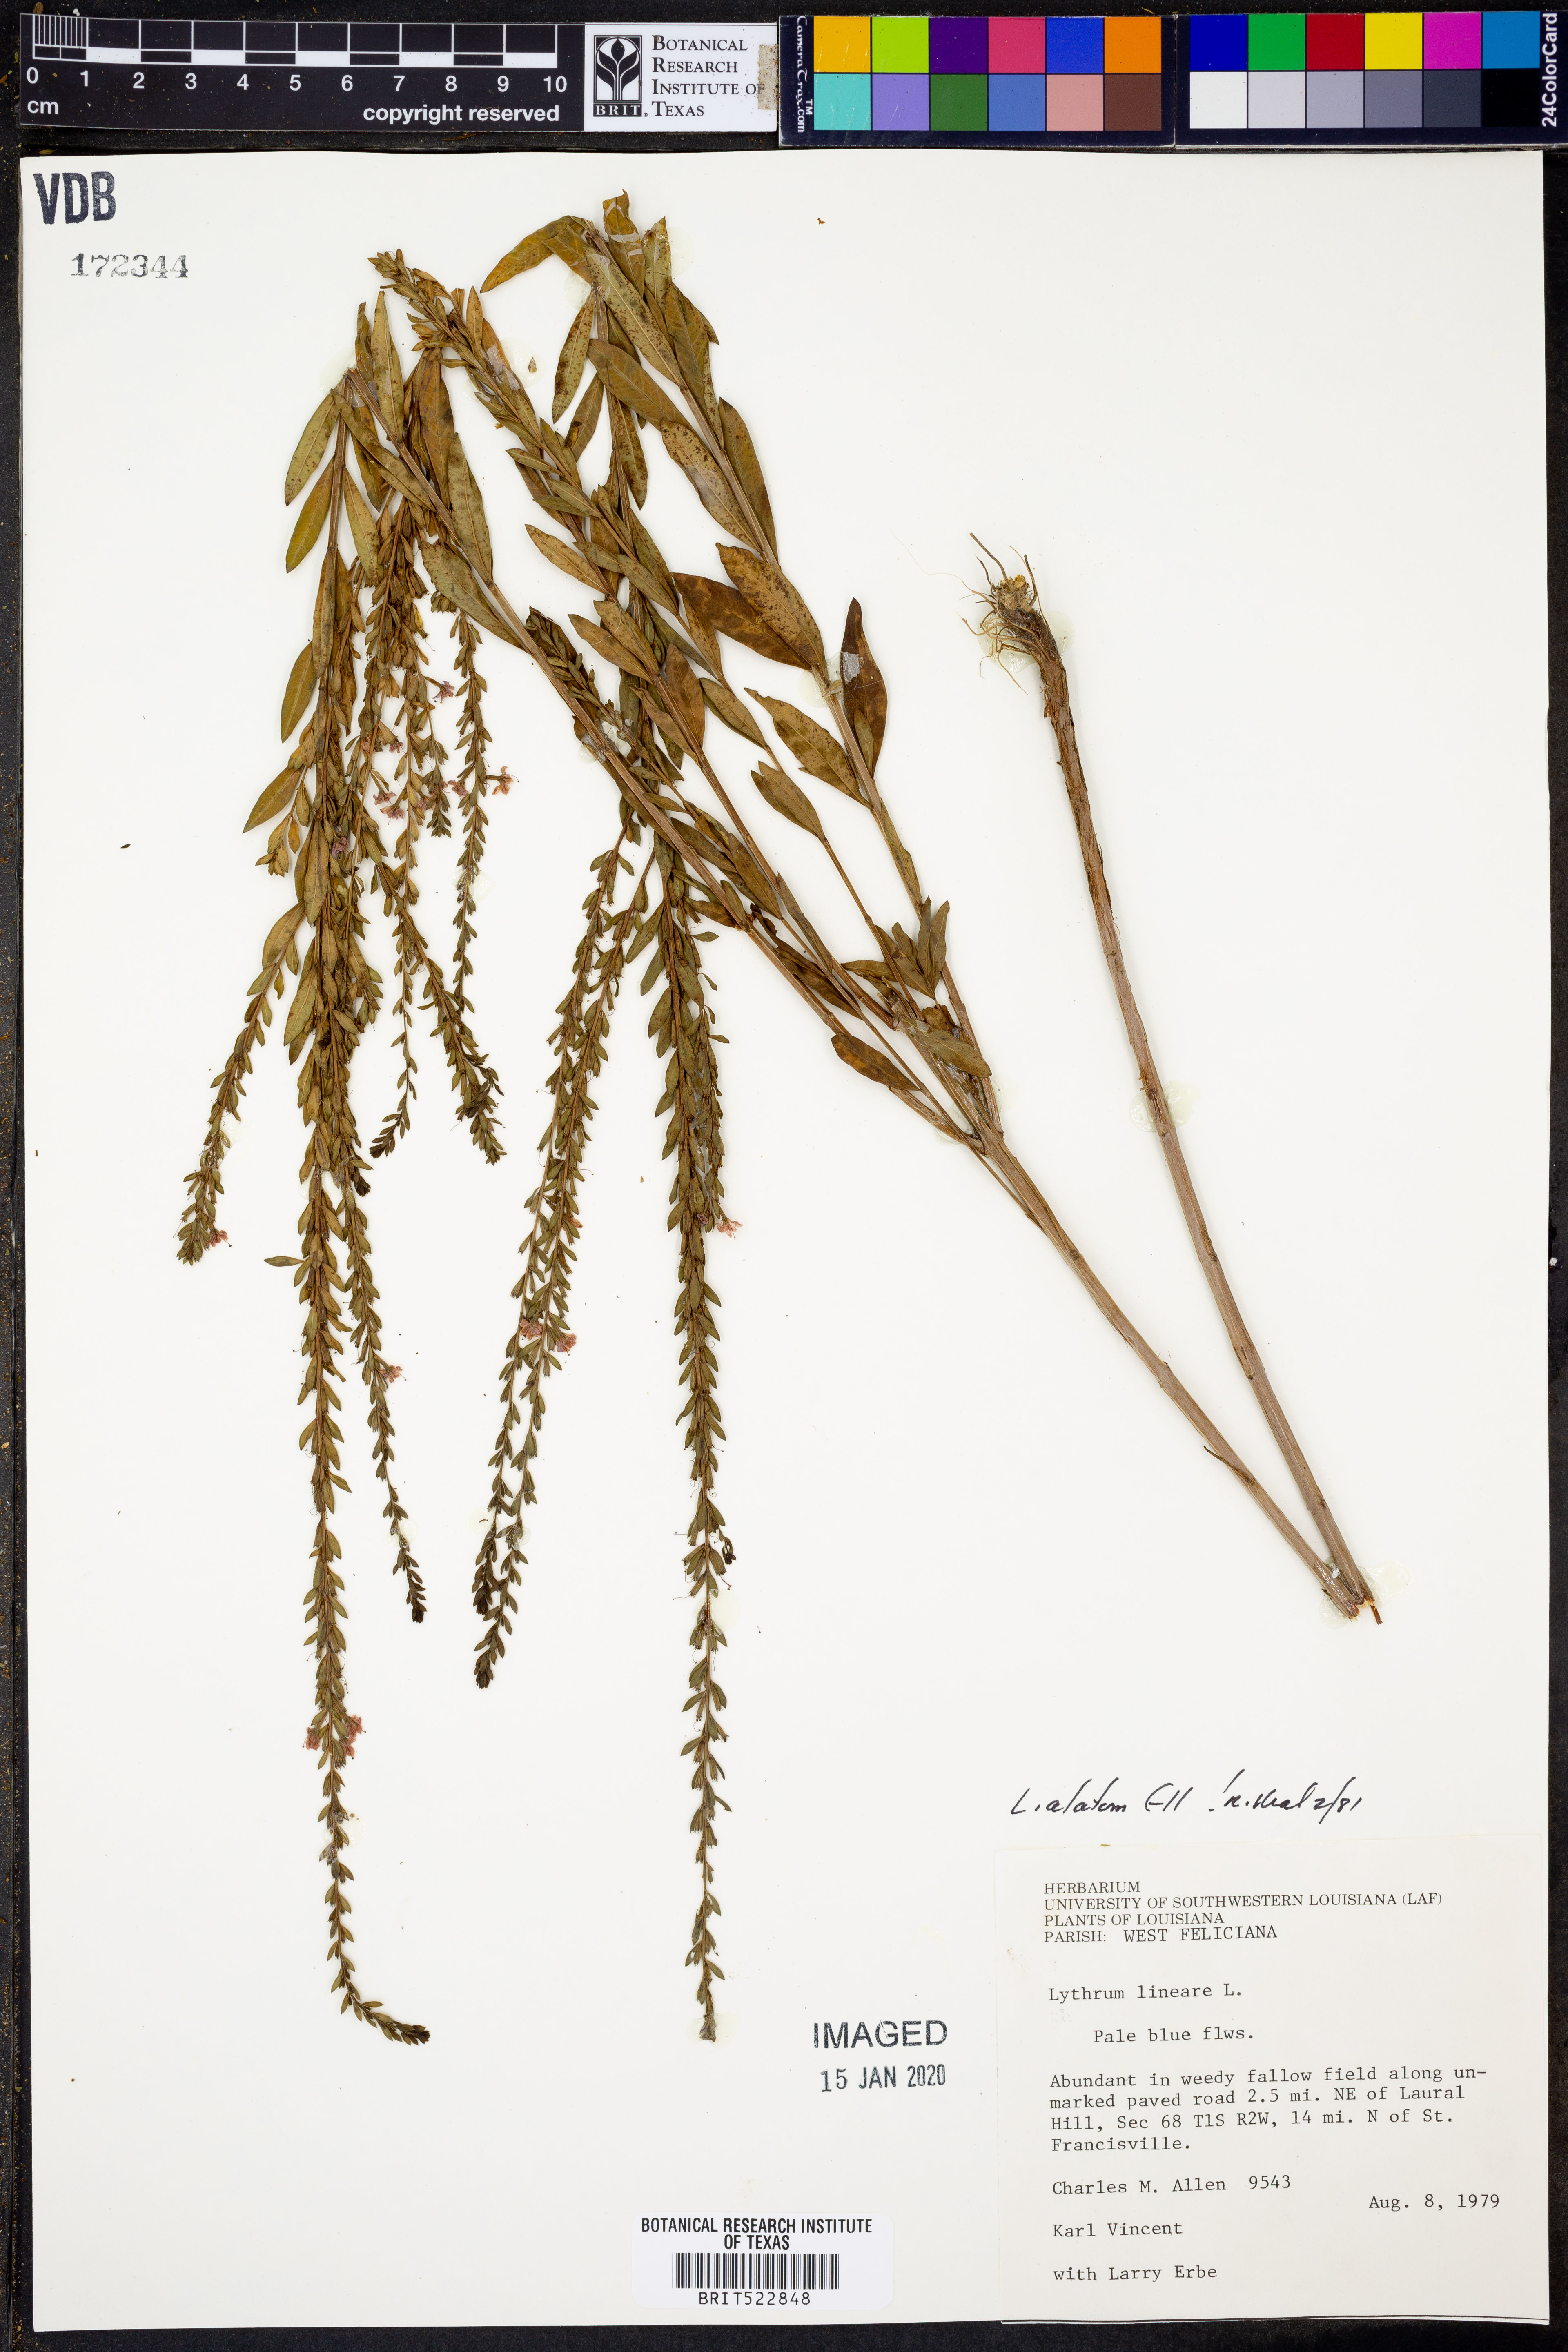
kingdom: Plantae
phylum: Tracheophyta
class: Magnoliopsida
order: Myrtales
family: Lythraceae
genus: Lythrum
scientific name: Lythrum alatum
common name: Winged loosestrife
